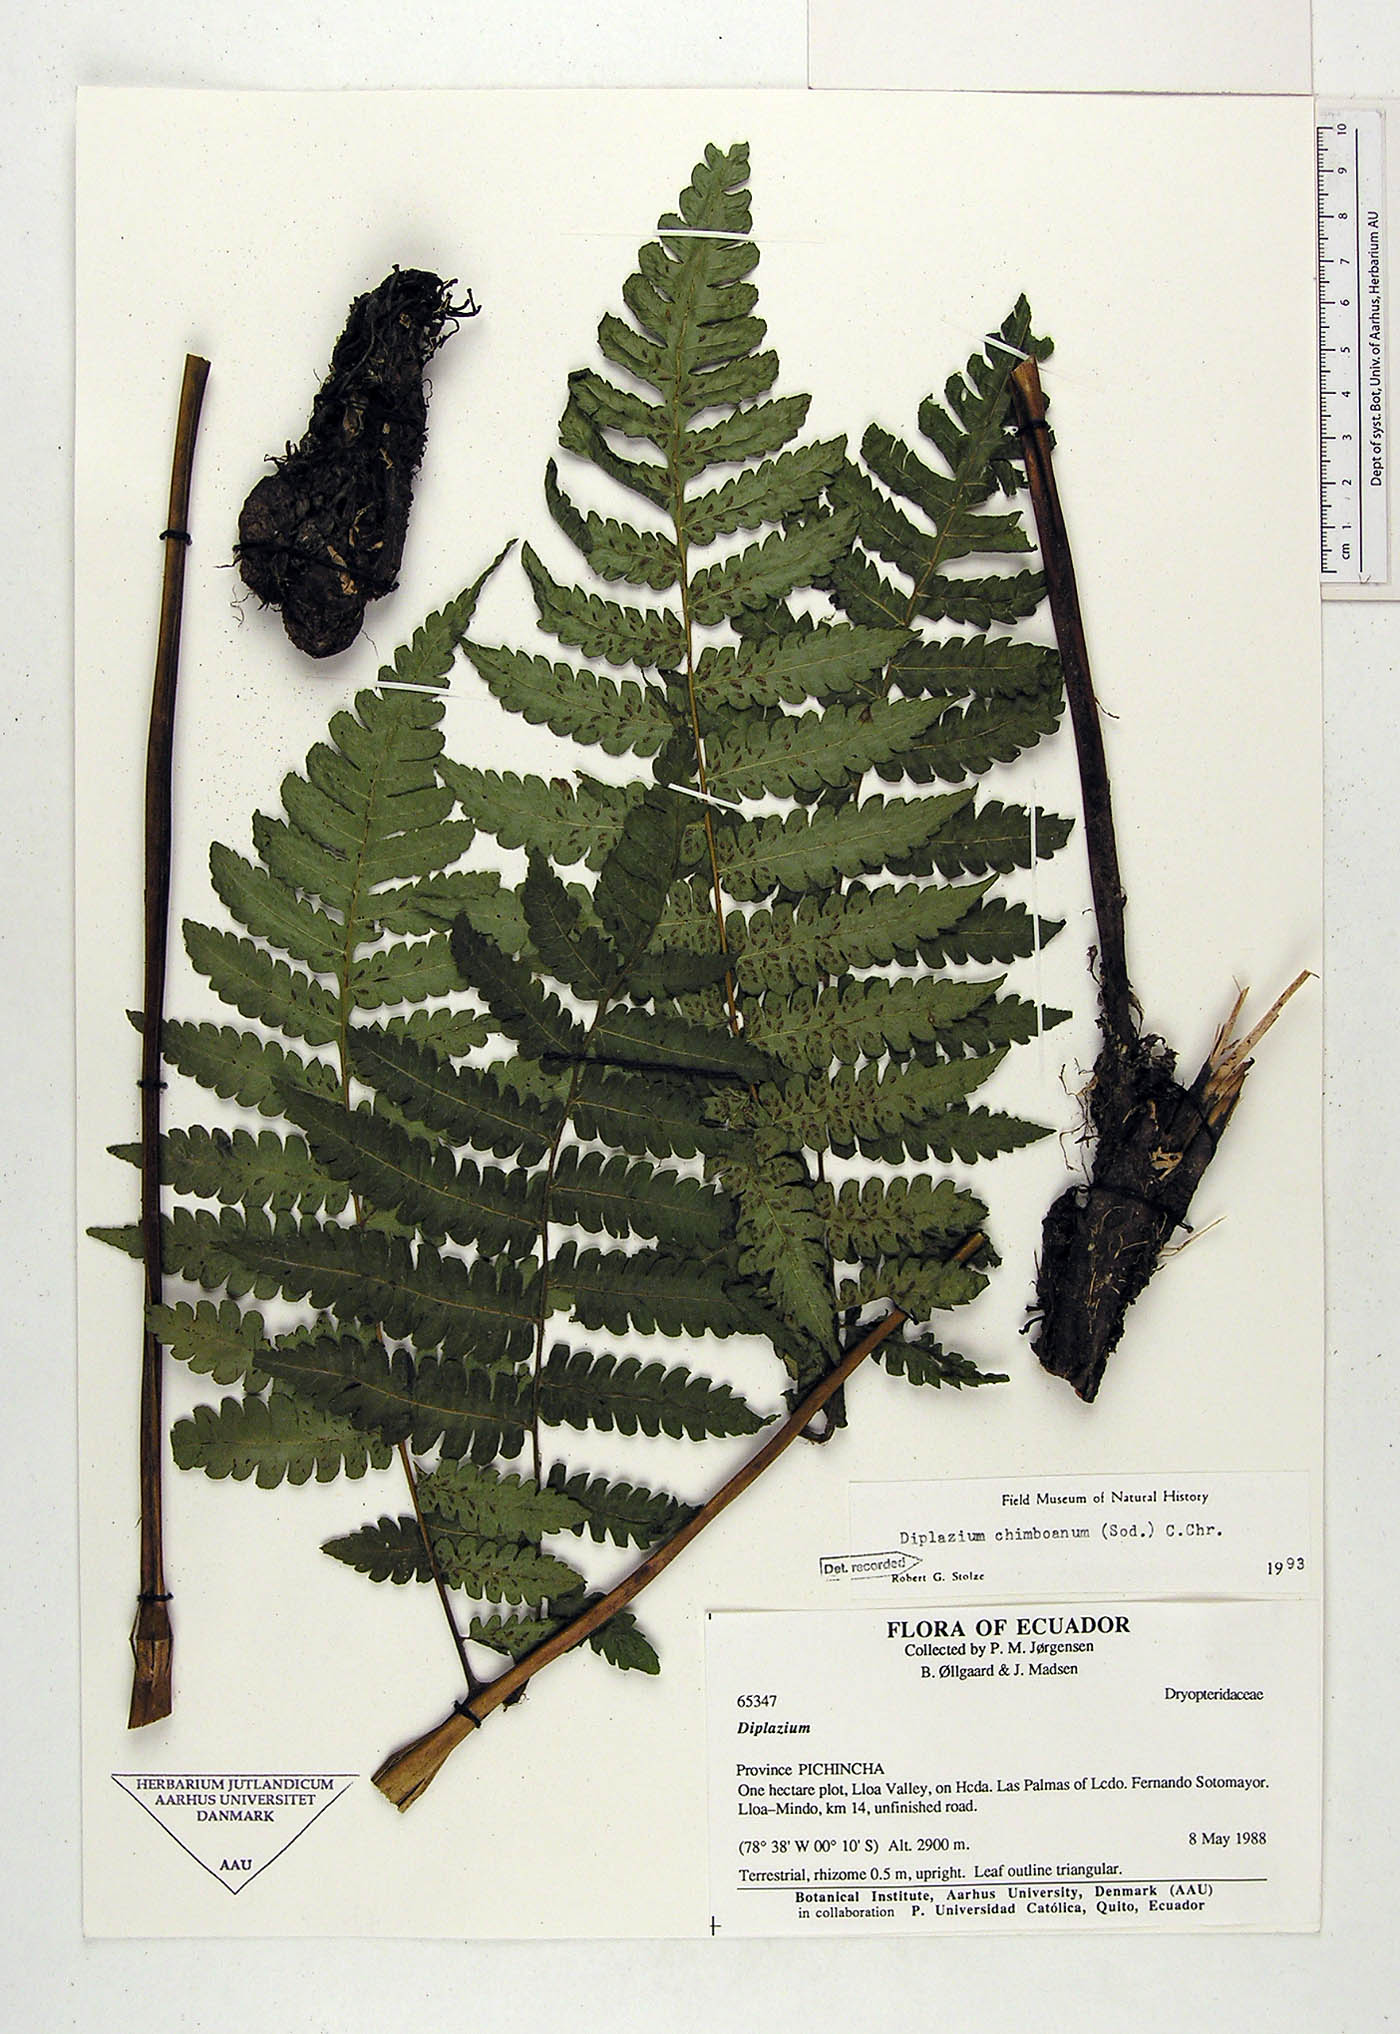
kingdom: Plantae
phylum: Tracheophyta
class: Polypodiopsida
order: Polypodiales
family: Athyriaceae
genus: Diplazium
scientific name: Diplazium chimboanum
